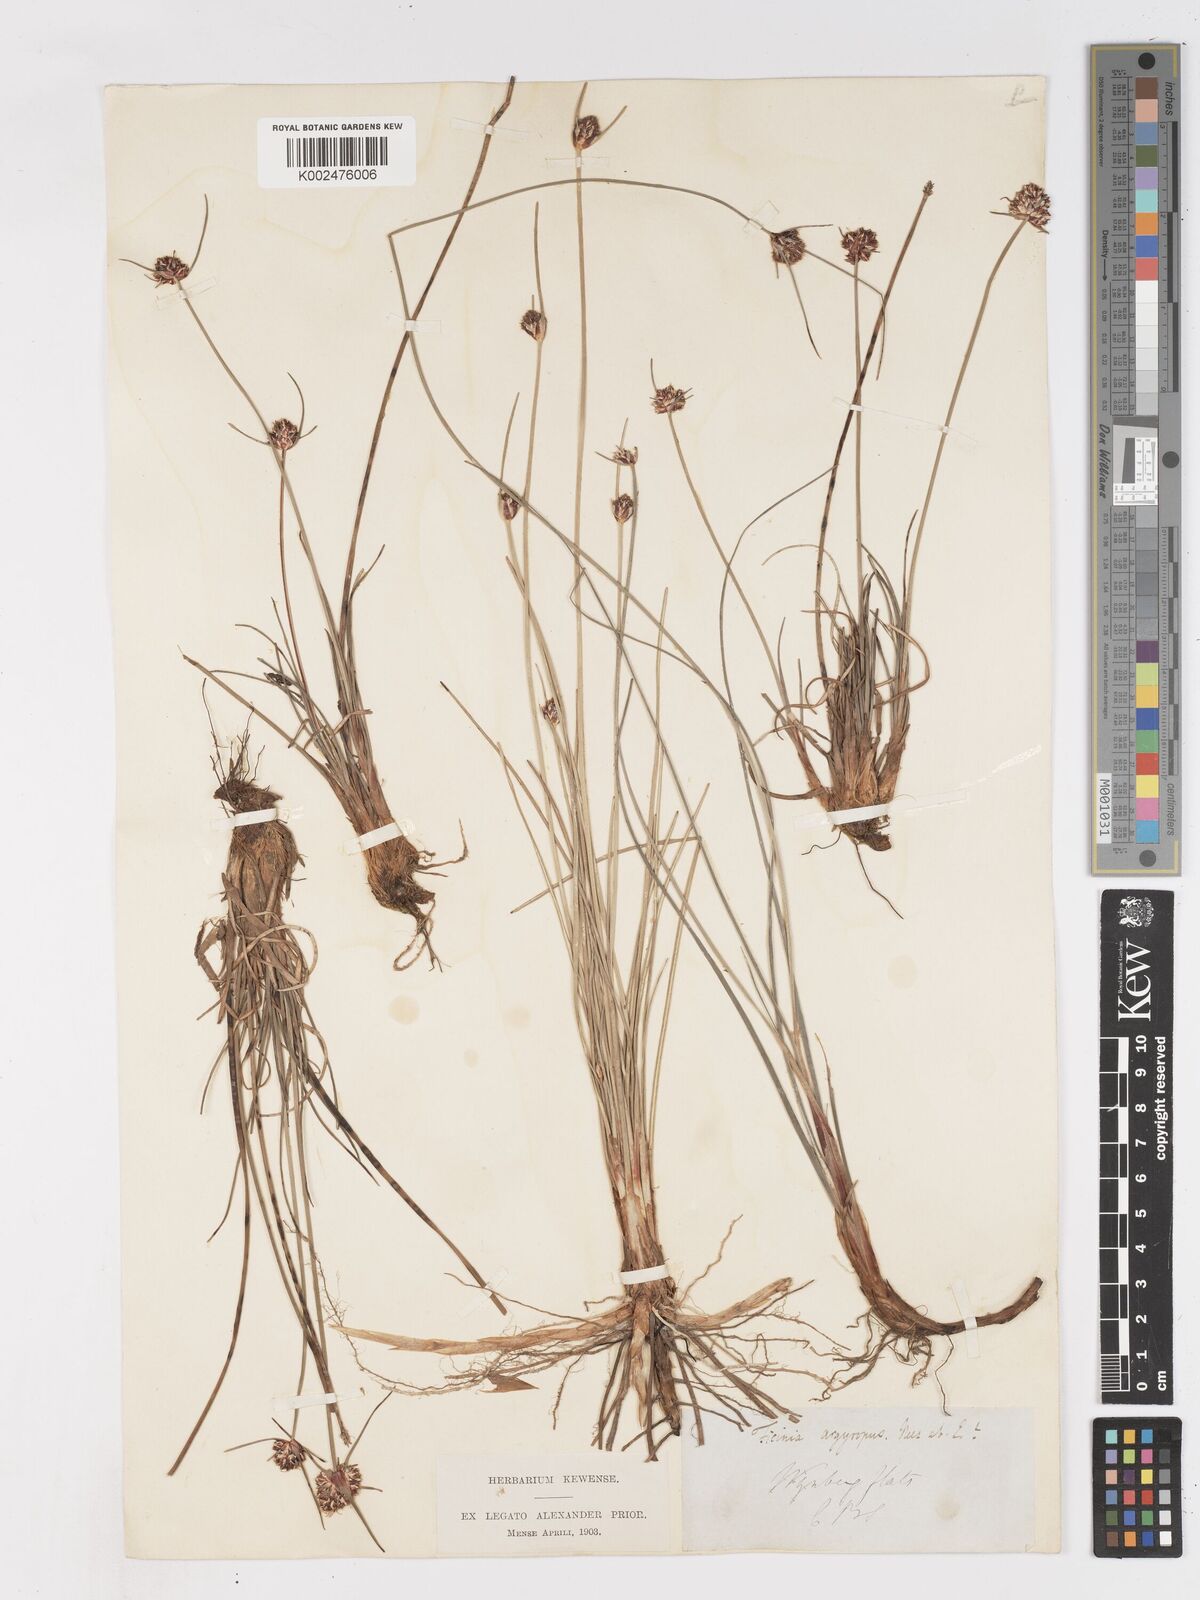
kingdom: Plantae
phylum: Tracheophyta
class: Liliopsida
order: Poales
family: Cyperaceae
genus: Ficinia
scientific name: Ficinia indica
